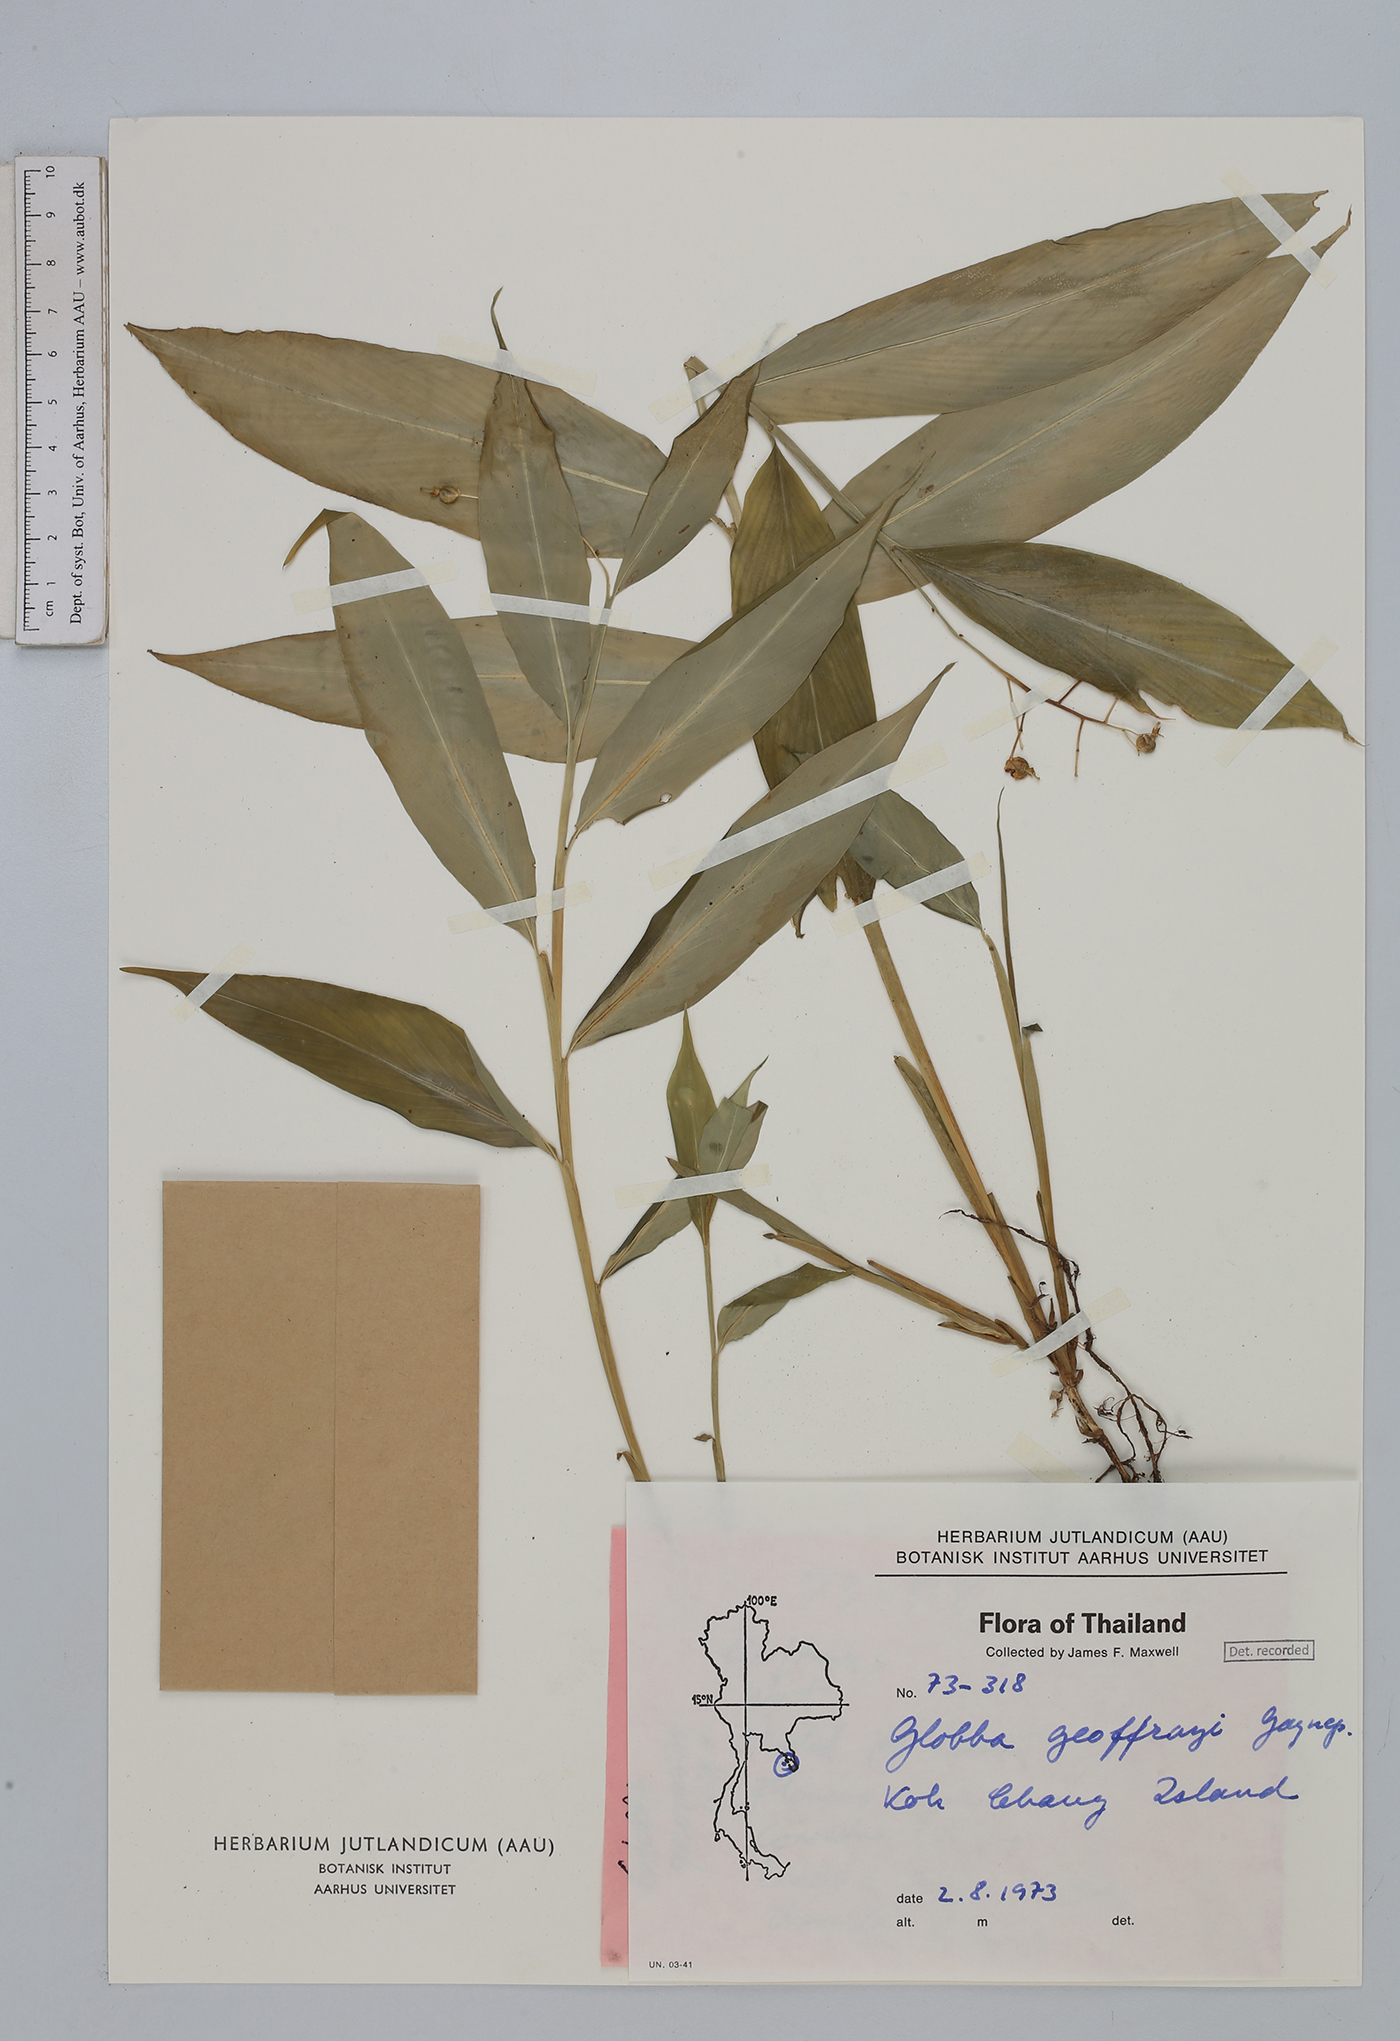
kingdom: Plantae
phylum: Tracheophyta
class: Liliopsida
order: Zingiberales
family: Zingiberaceae
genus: Globba
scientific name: Globba geoffrayi
